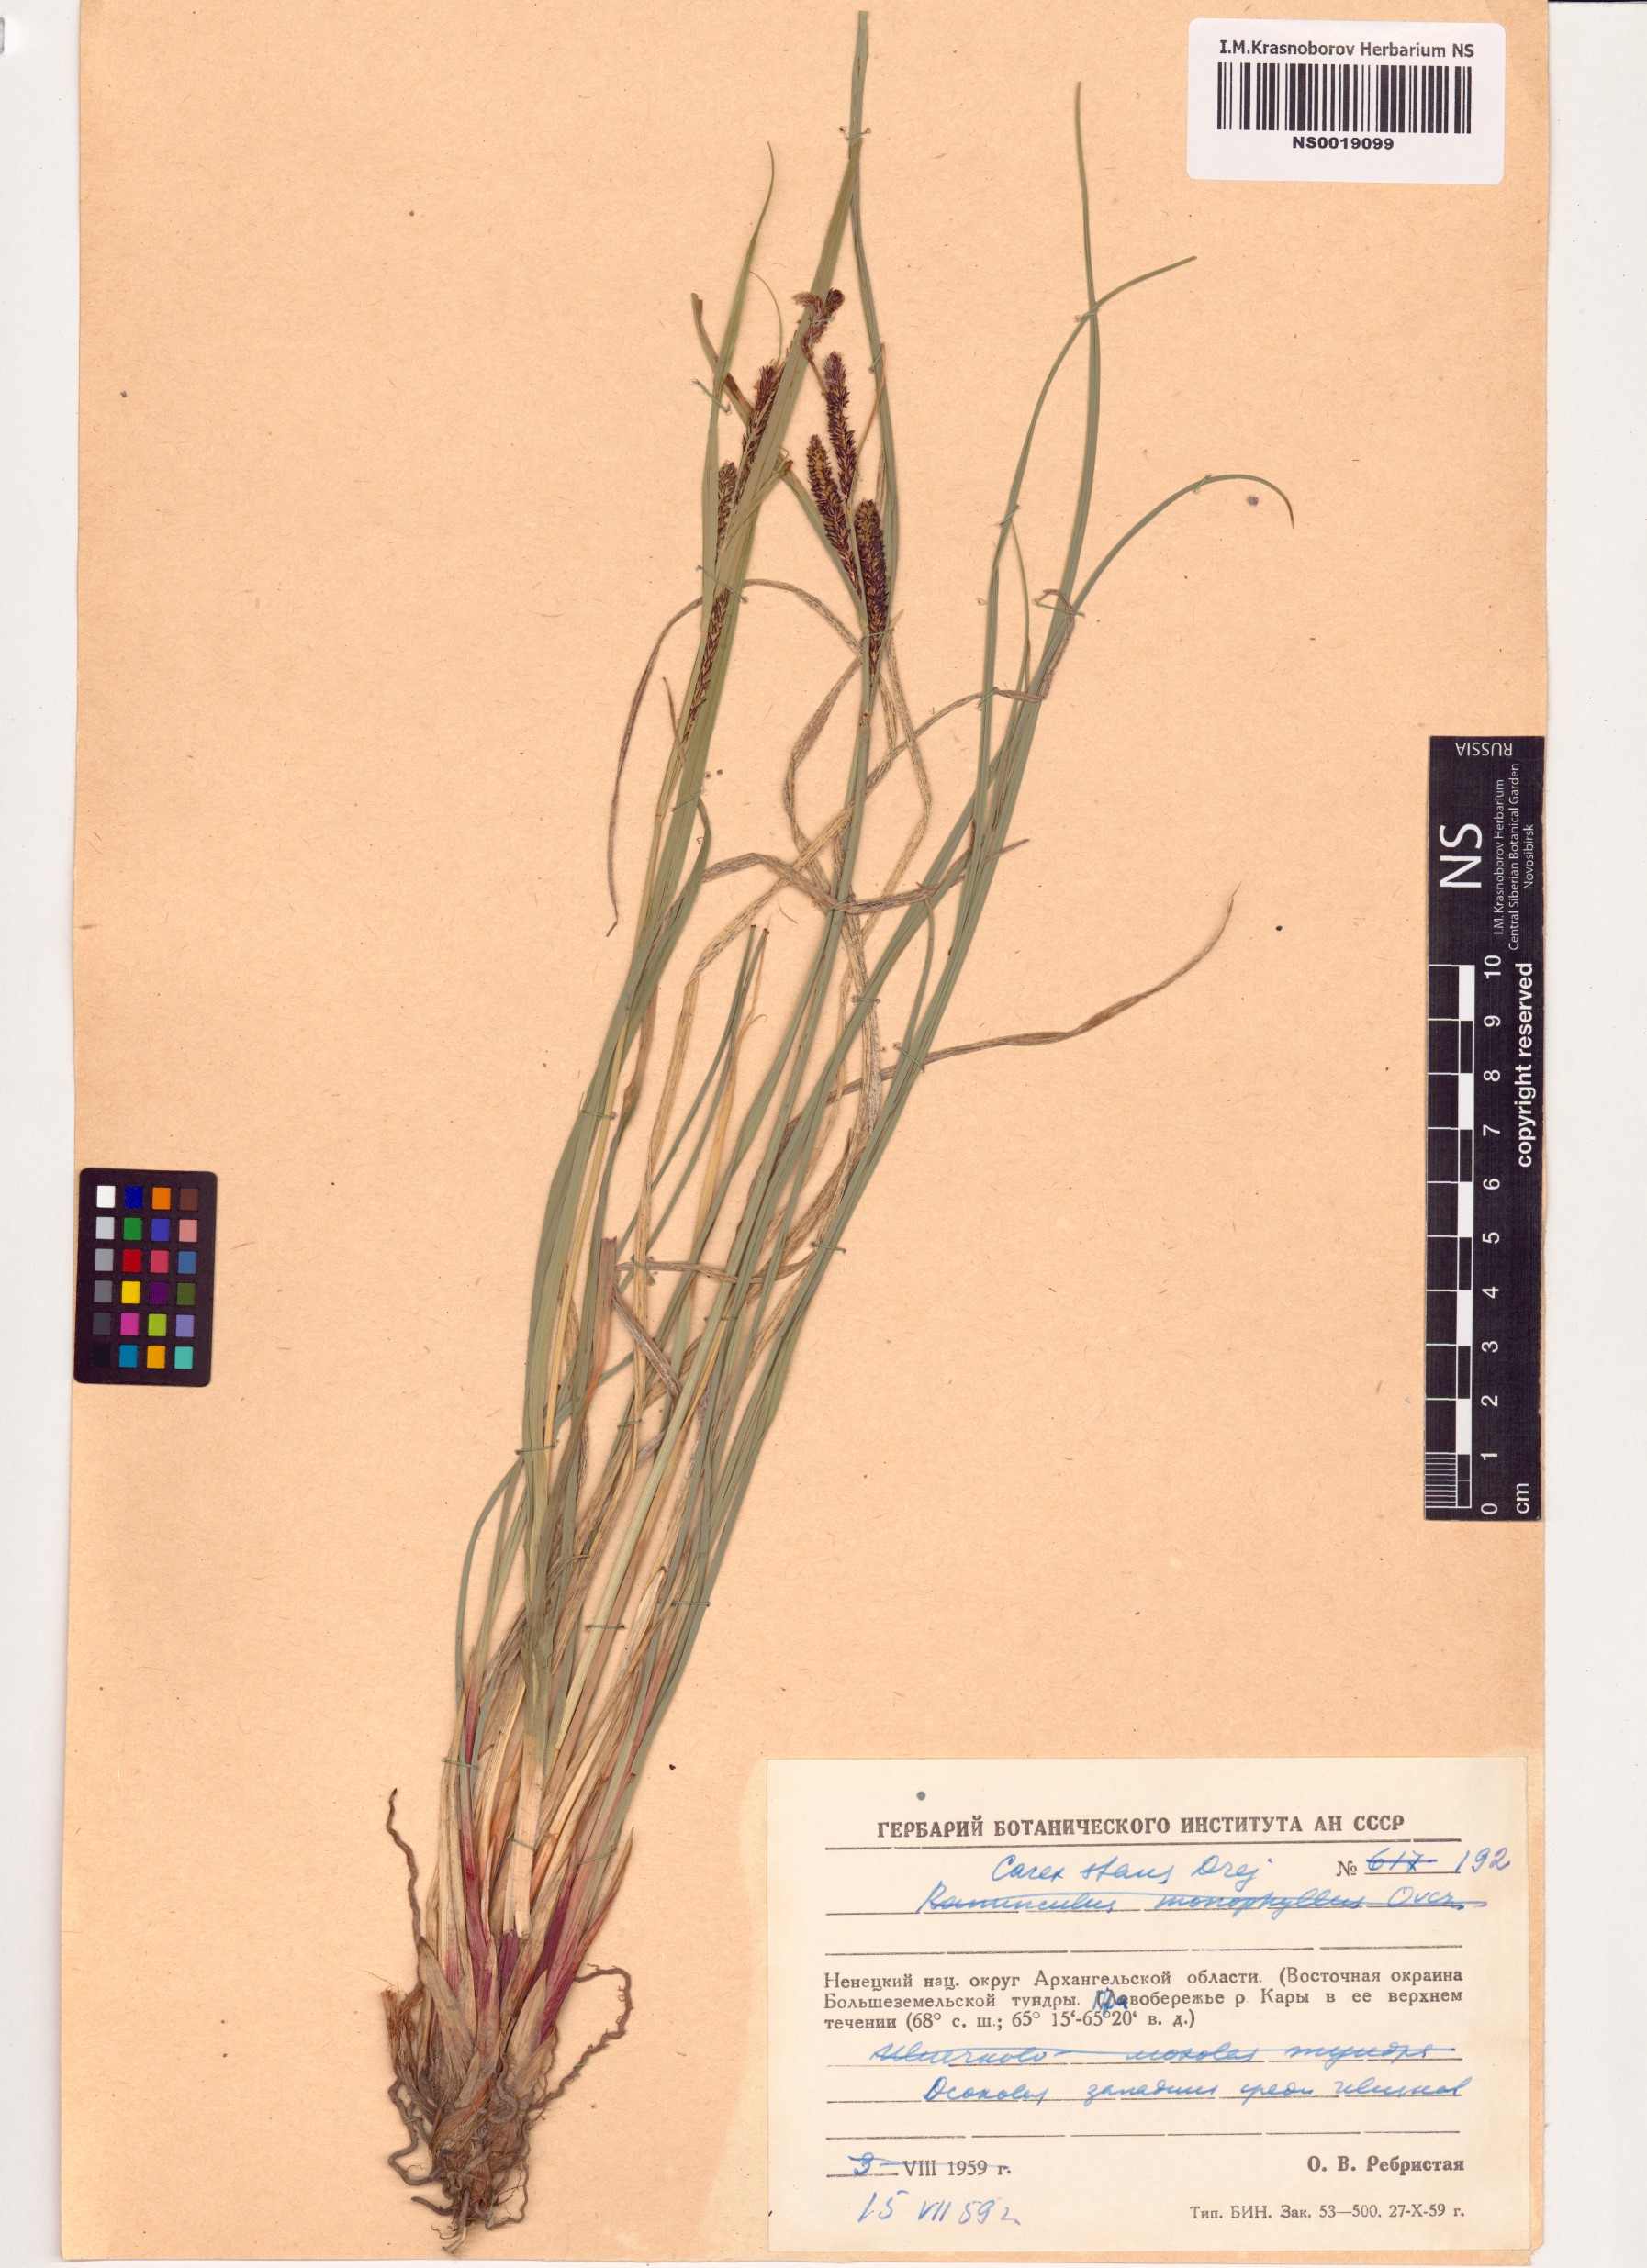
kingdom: Plantae
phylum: Tracheophyta
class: Liliopsida
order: Poales
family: Cyperaceae
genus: Carex
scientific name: Carex aquatilis
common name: Water sedge
